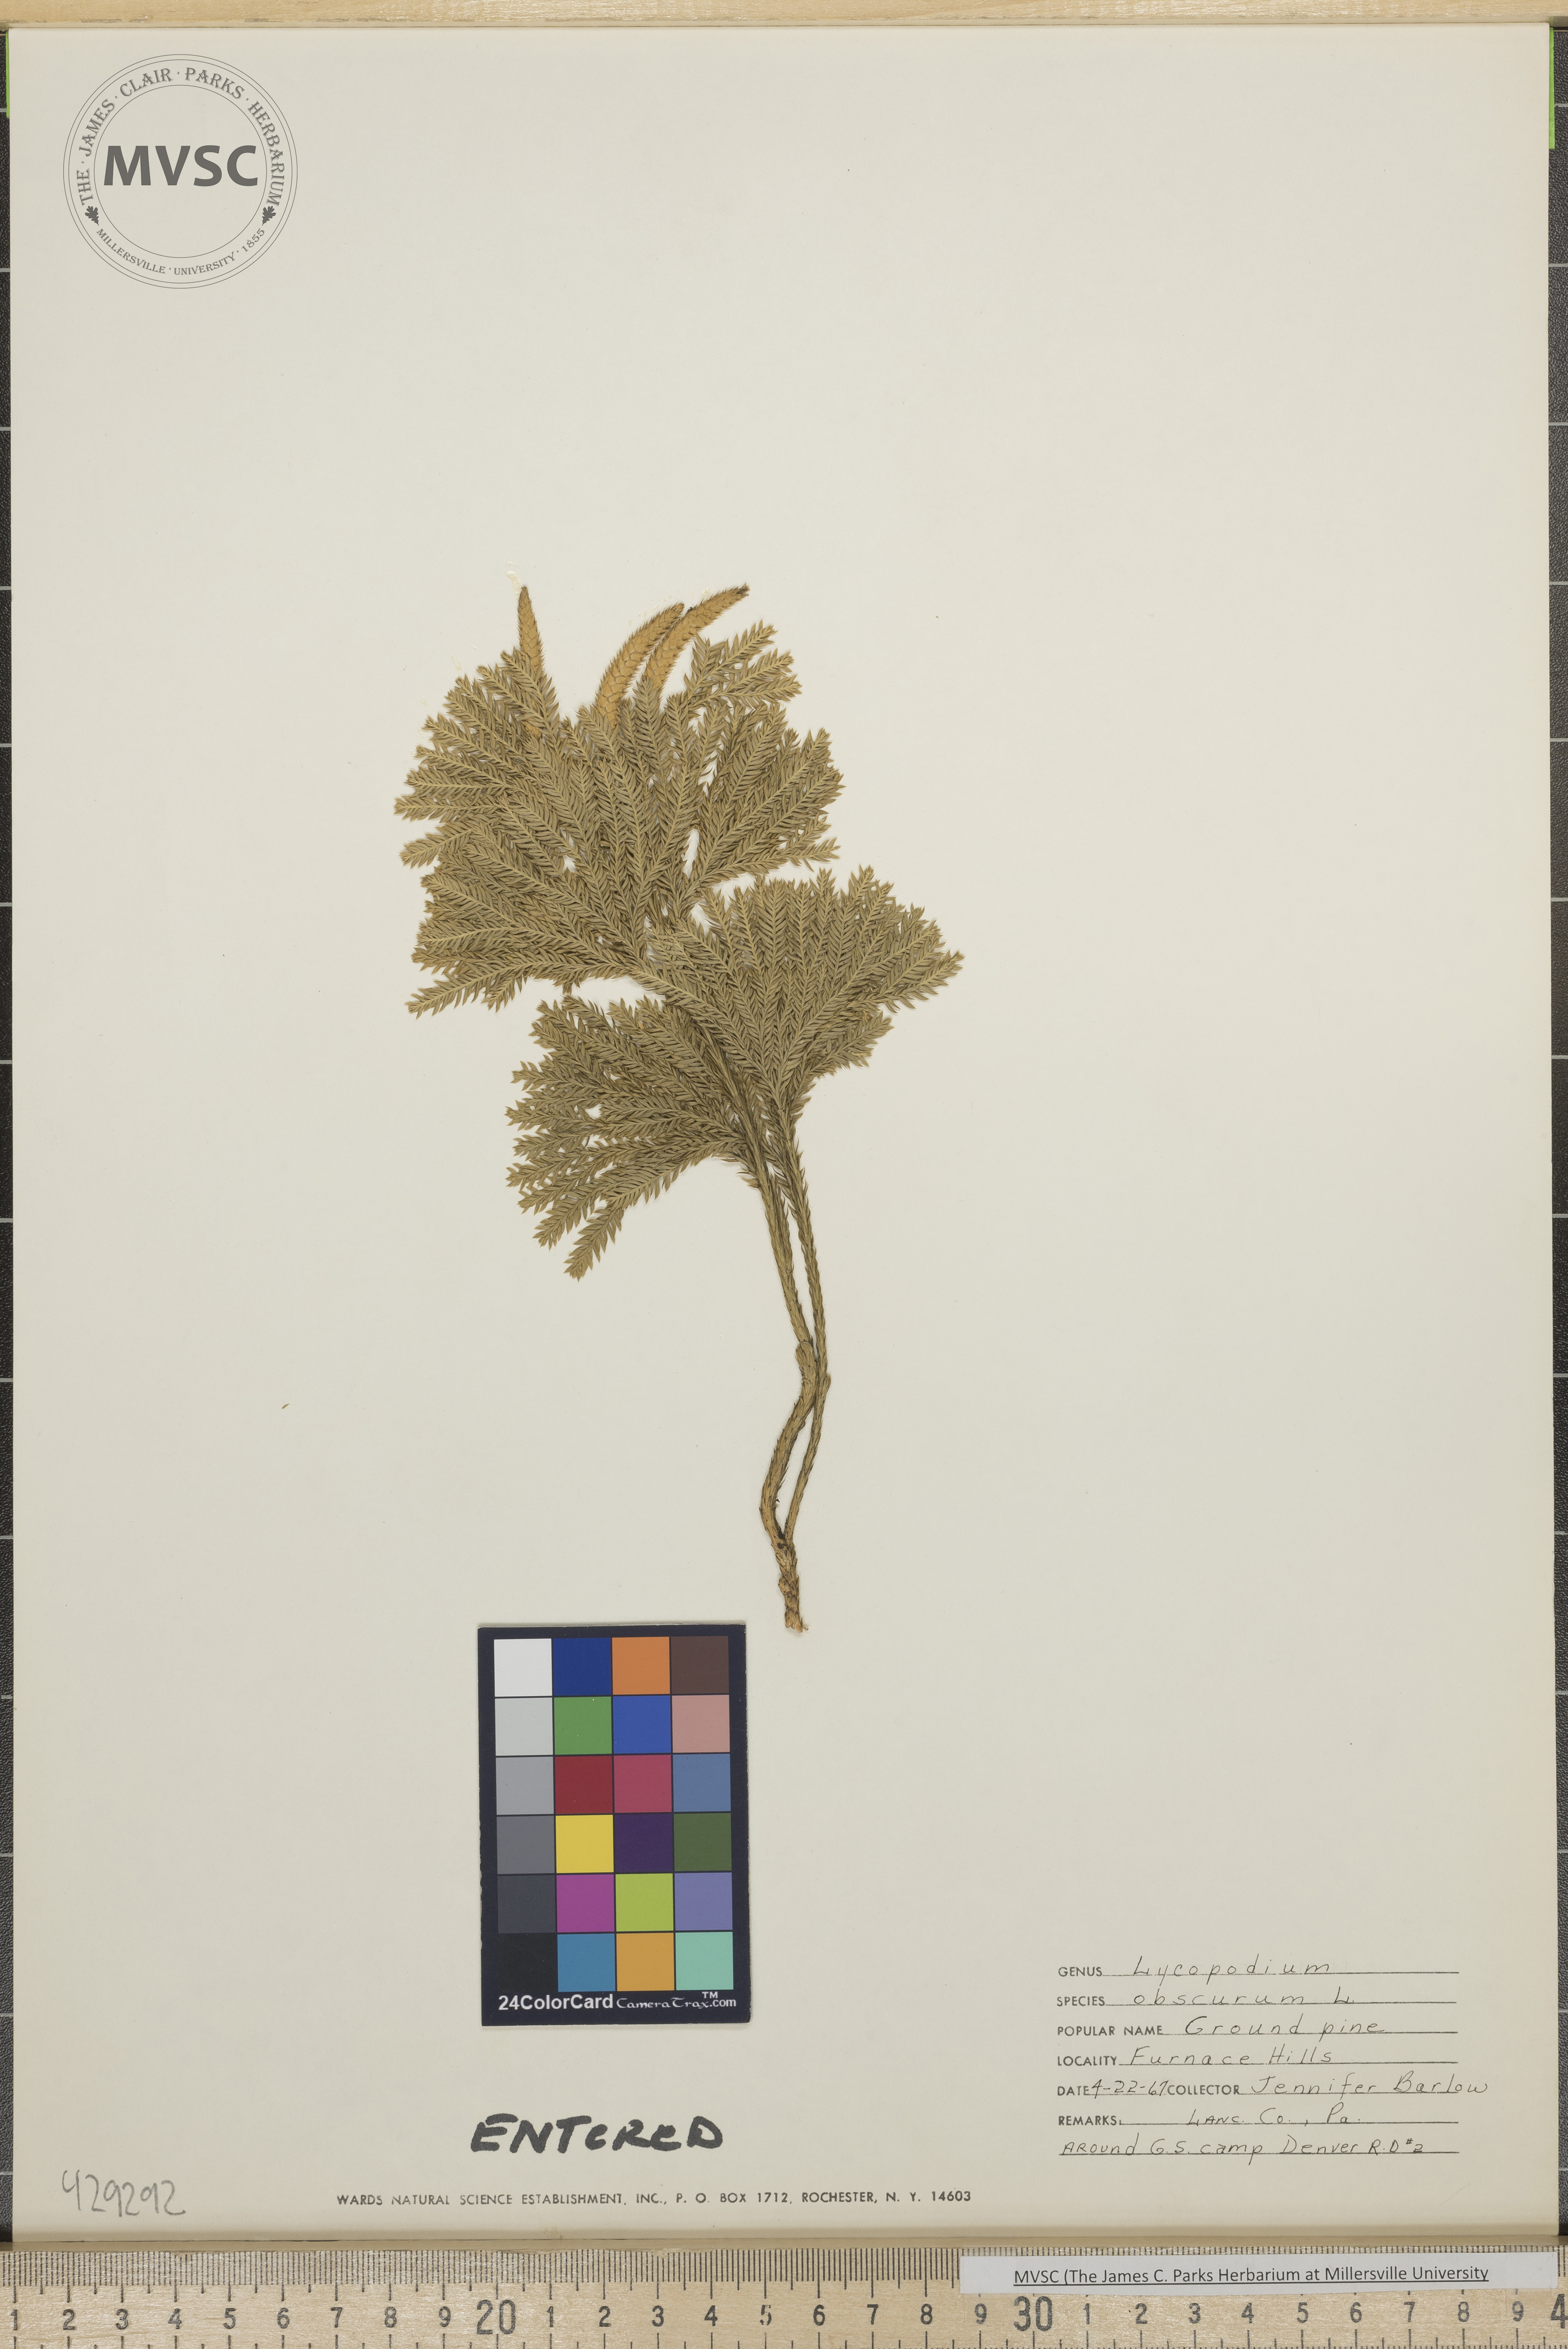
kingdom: Plantae
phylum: Tracheophyta
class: Lycopodiopsida
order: Lycopodiales
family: Lycopodiaceae
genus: Dendrolycopodium
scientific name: Dendrolycopodium obscurum
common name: Common ground-pine
